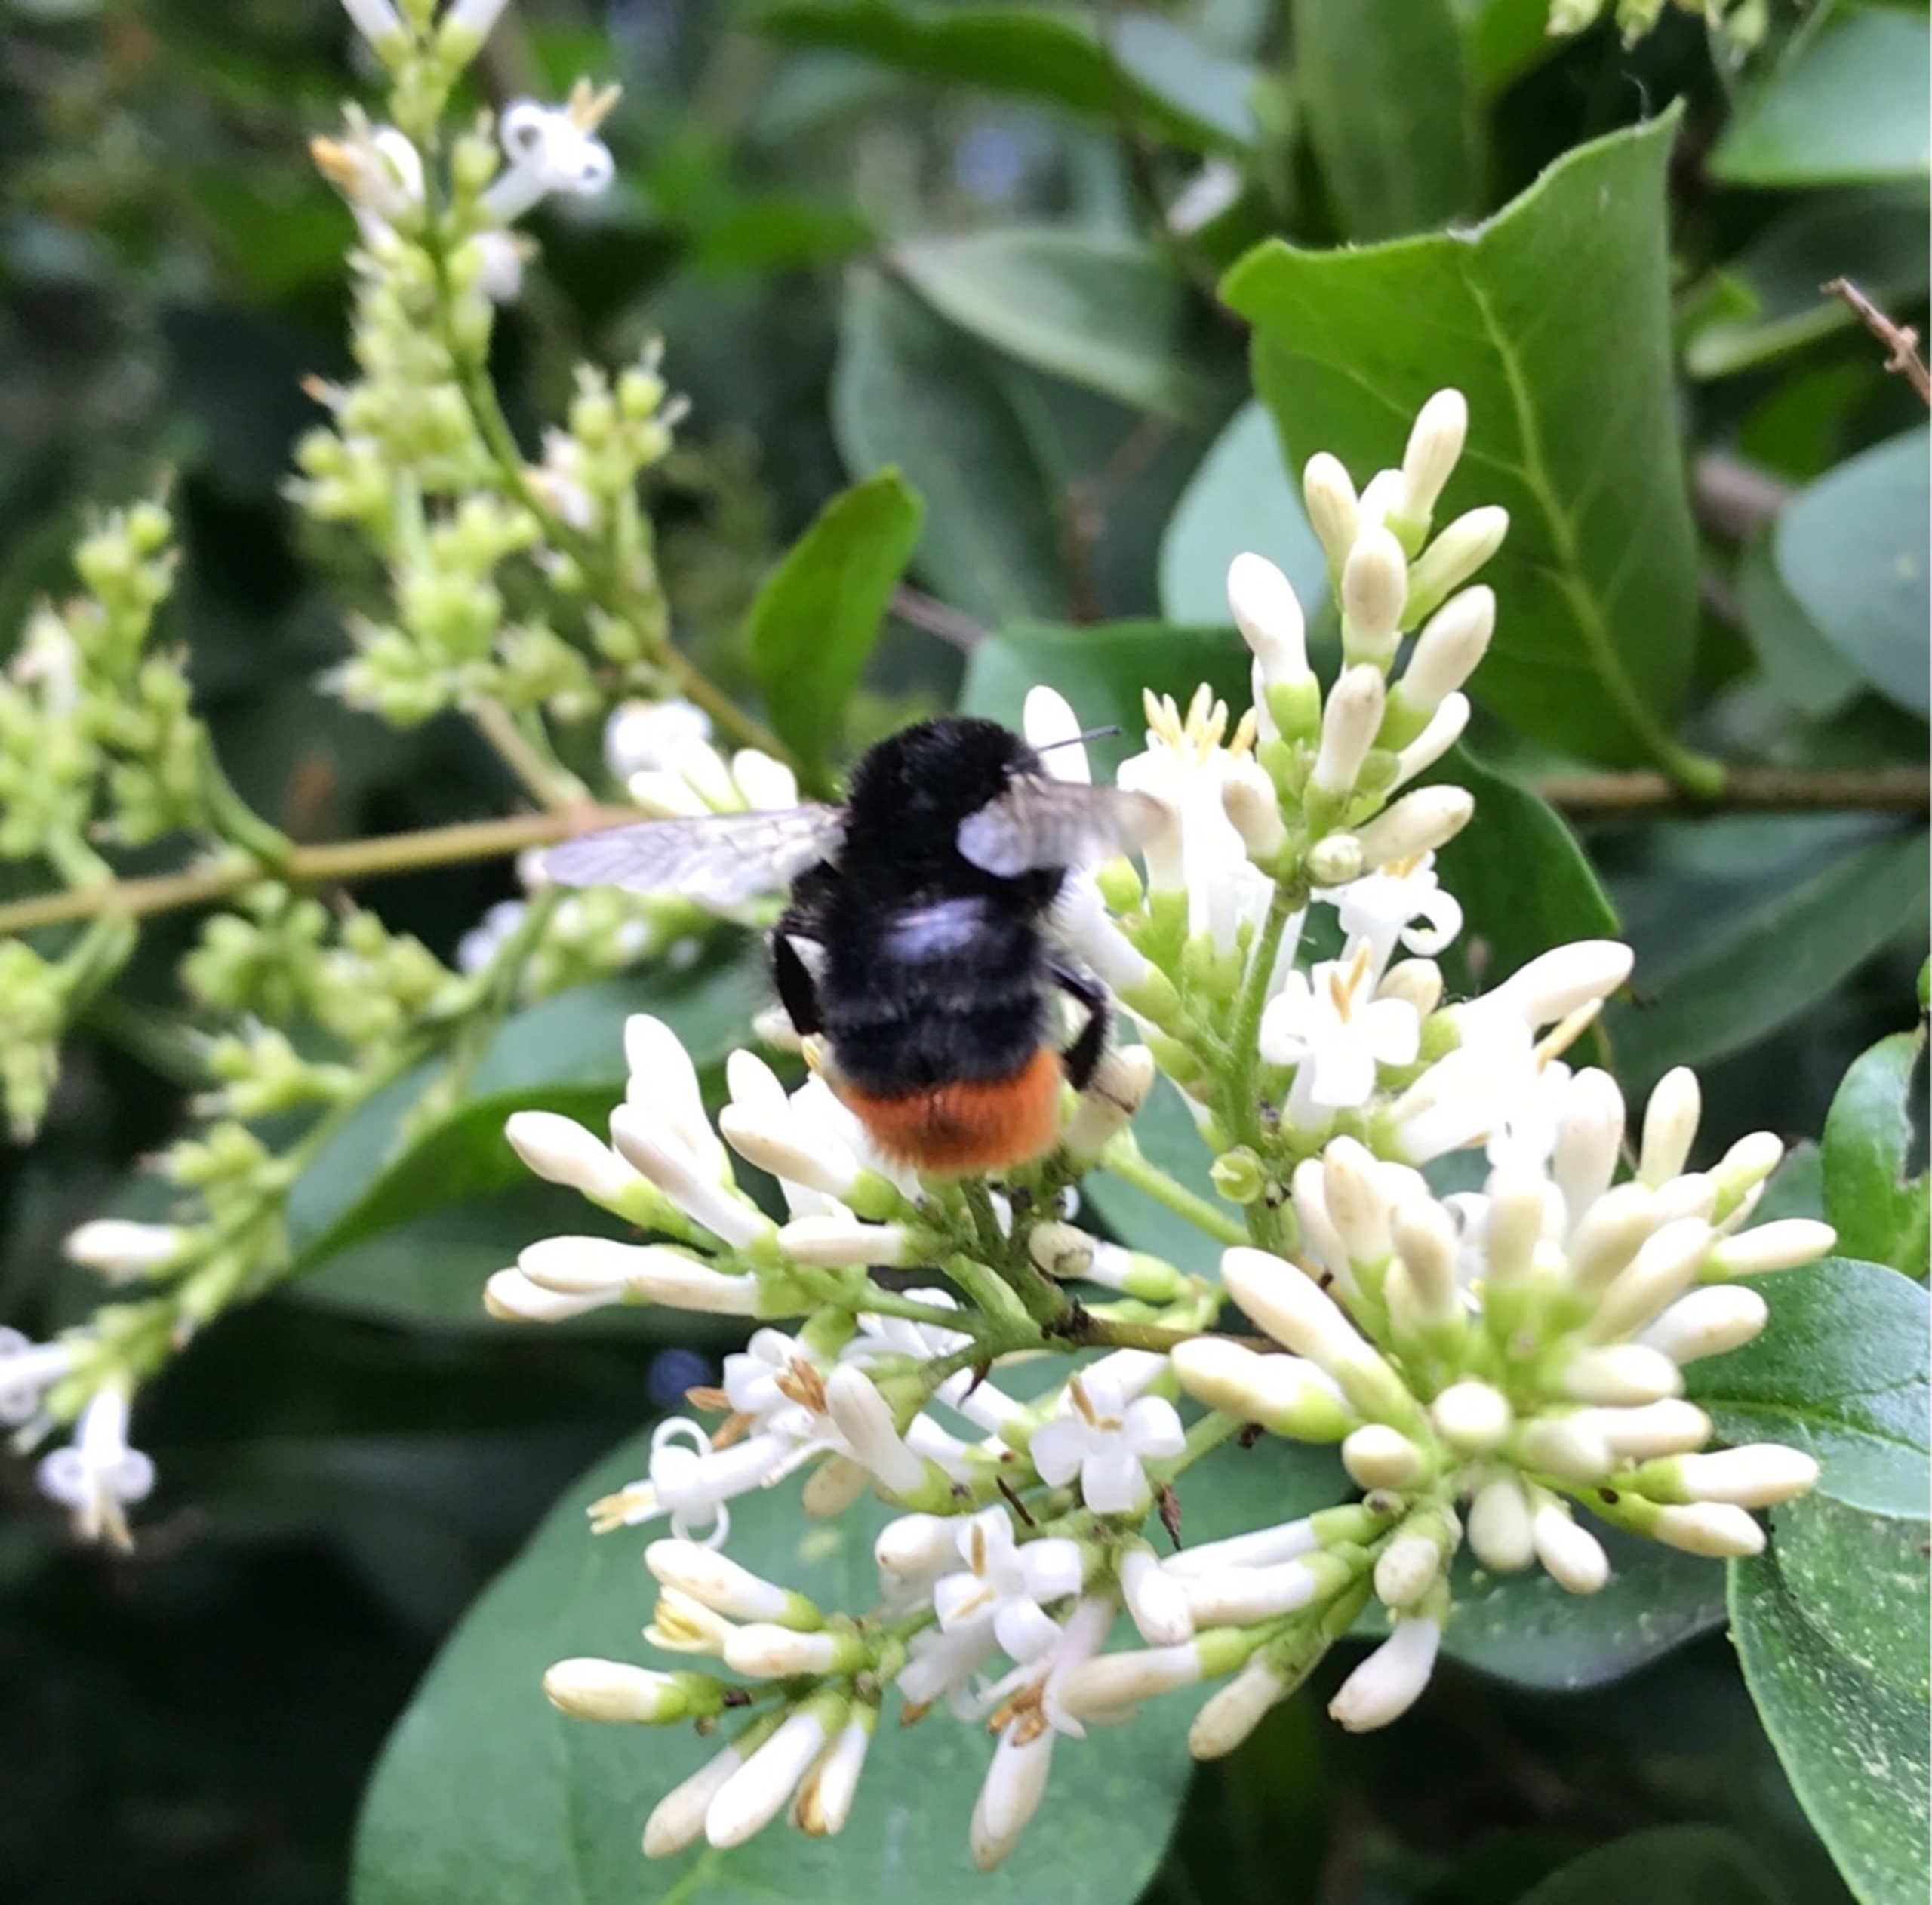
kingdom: Animalia
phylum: Arthropoda
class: Insecta
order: Hymenoptera
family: Apidae
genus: Bombus
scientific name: Bombus lapidarius
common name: Stenhumle
